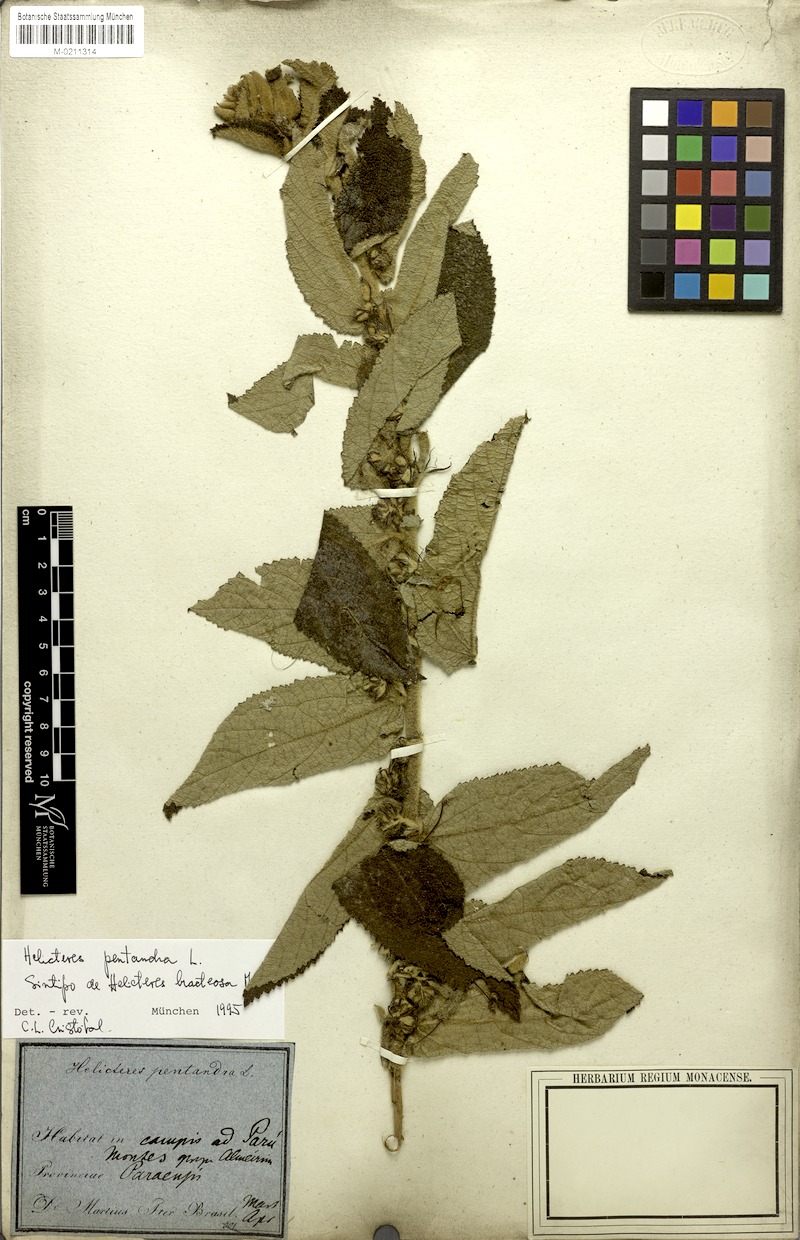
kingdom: Plantae
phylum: Tracheophyta
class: Magnoliopsida
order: Malvales
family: Malvaceae
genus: Helicteres
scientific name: Helicteres pentandra
